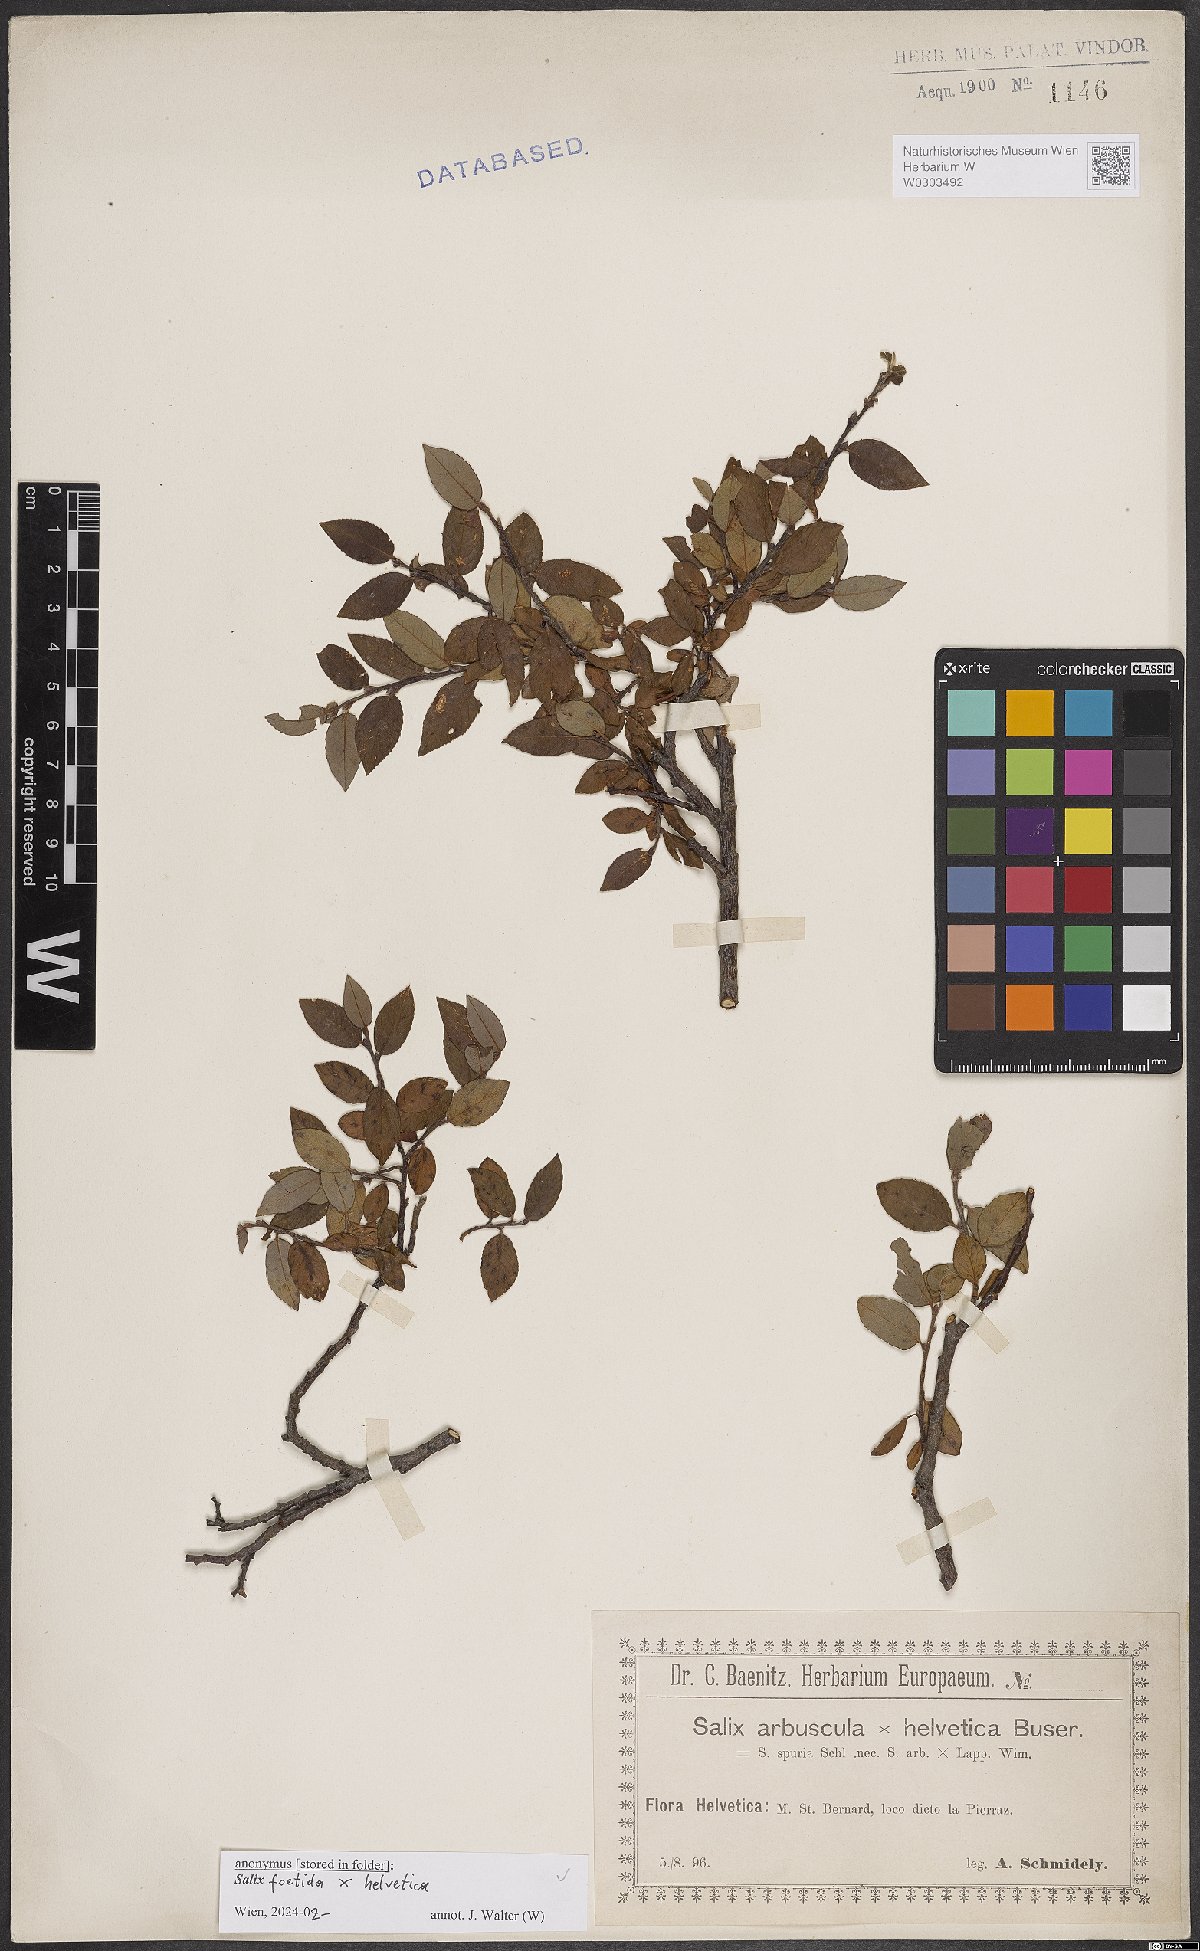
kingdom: Plantae
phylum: Tracheophyta
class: Magnoliopsida
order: Malpighiales
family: Salicaceae
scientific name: Salicaceae
